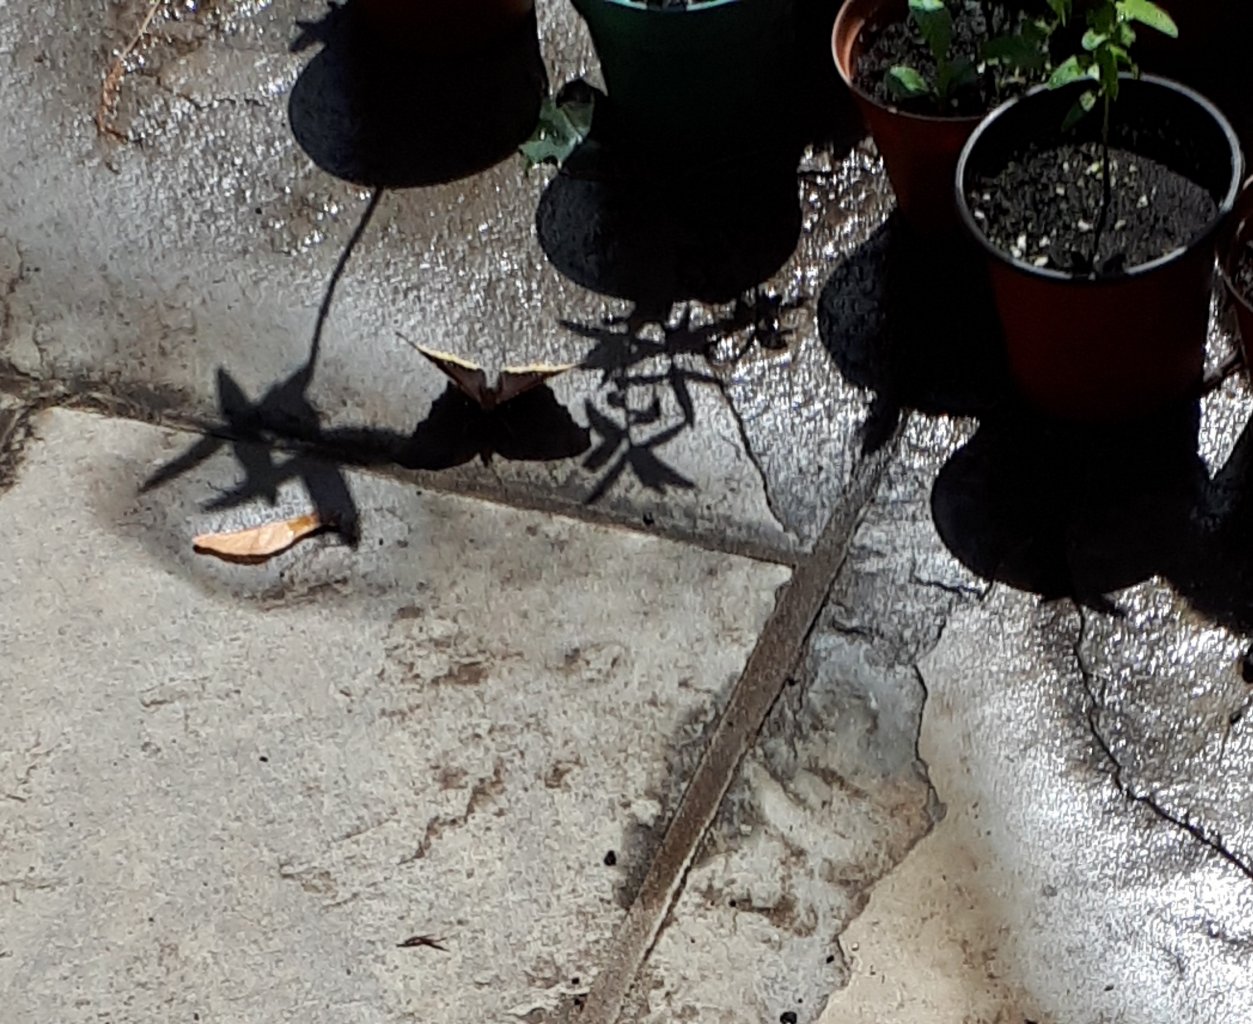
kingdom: Animalia
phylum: Arthropoda
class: Insecta
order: Lepidoptera
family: Nymphalidae
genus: Nymphalis
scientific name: Nymphalis antiopa
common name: Mourning Cloak
